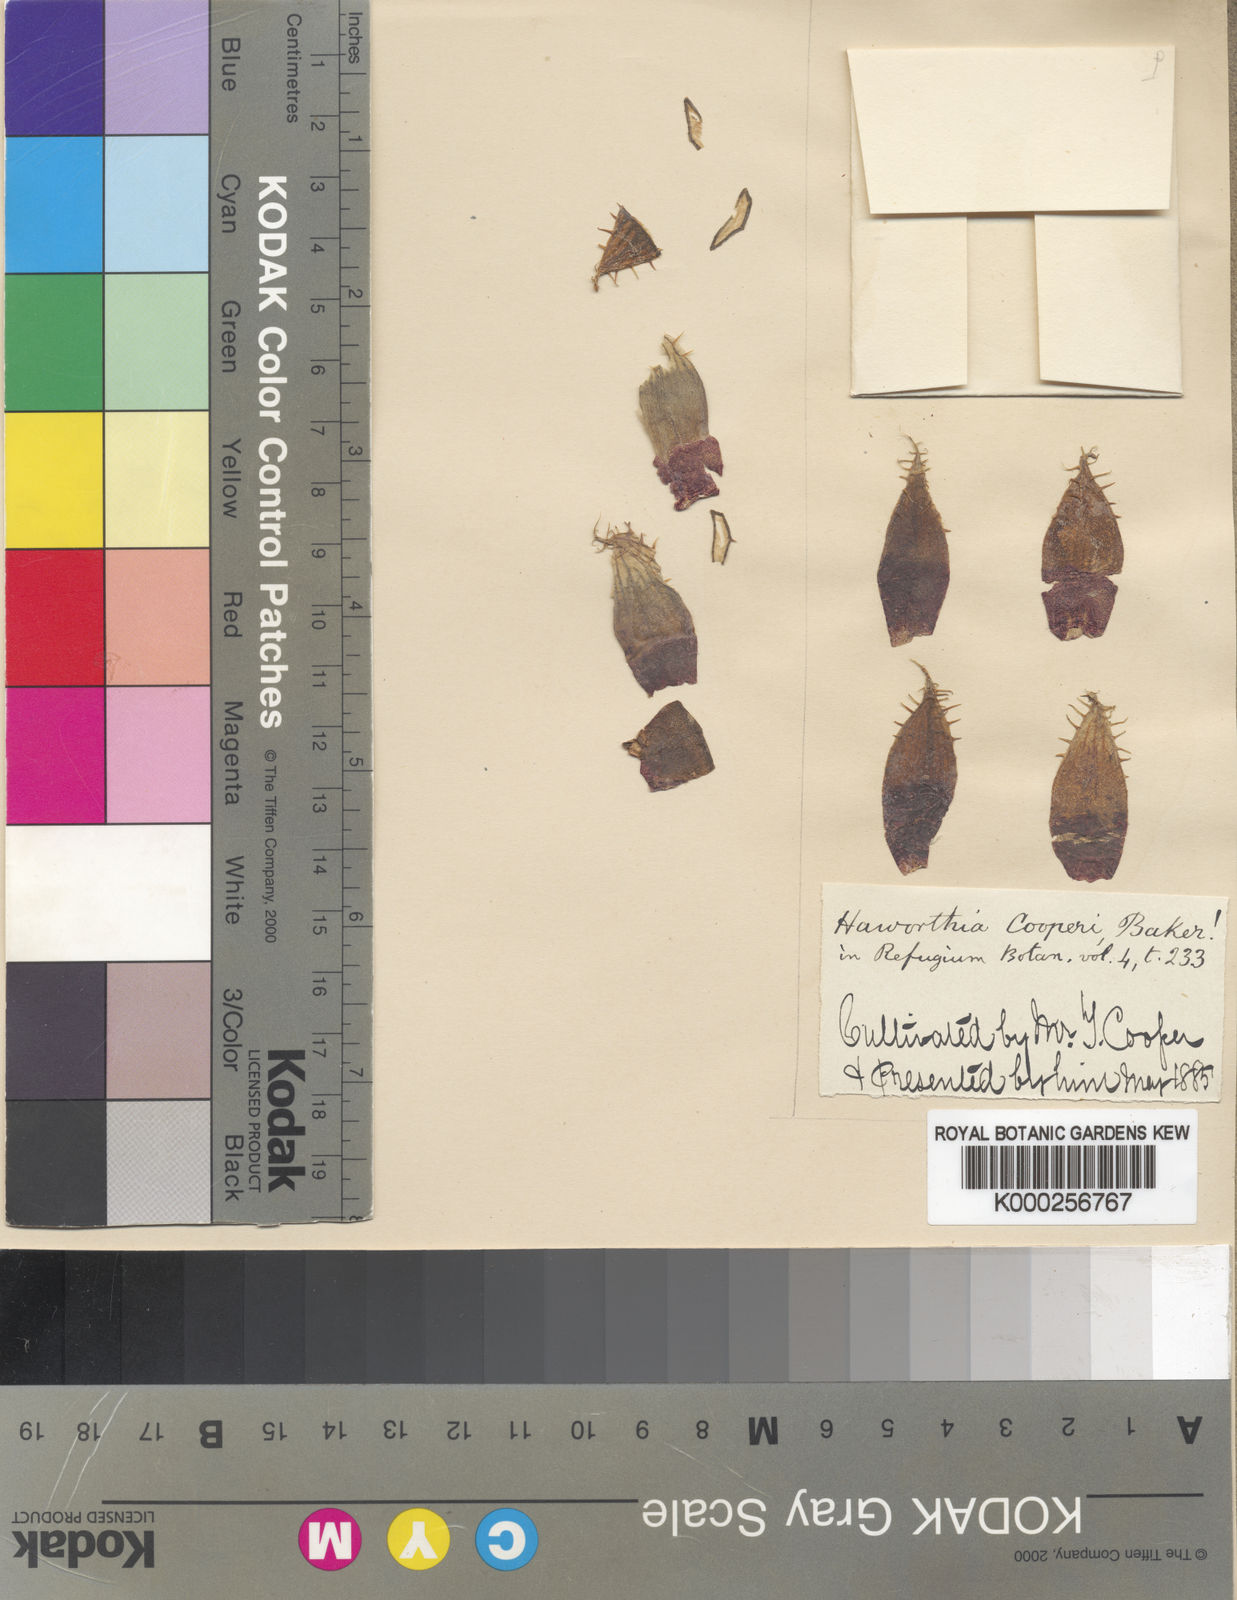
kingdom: Plantae
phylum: Tracheophyta
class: Liliopsida
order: Asparagales
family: Asphodelaceae
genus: Haworthia
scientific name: Haworthia cooperi
